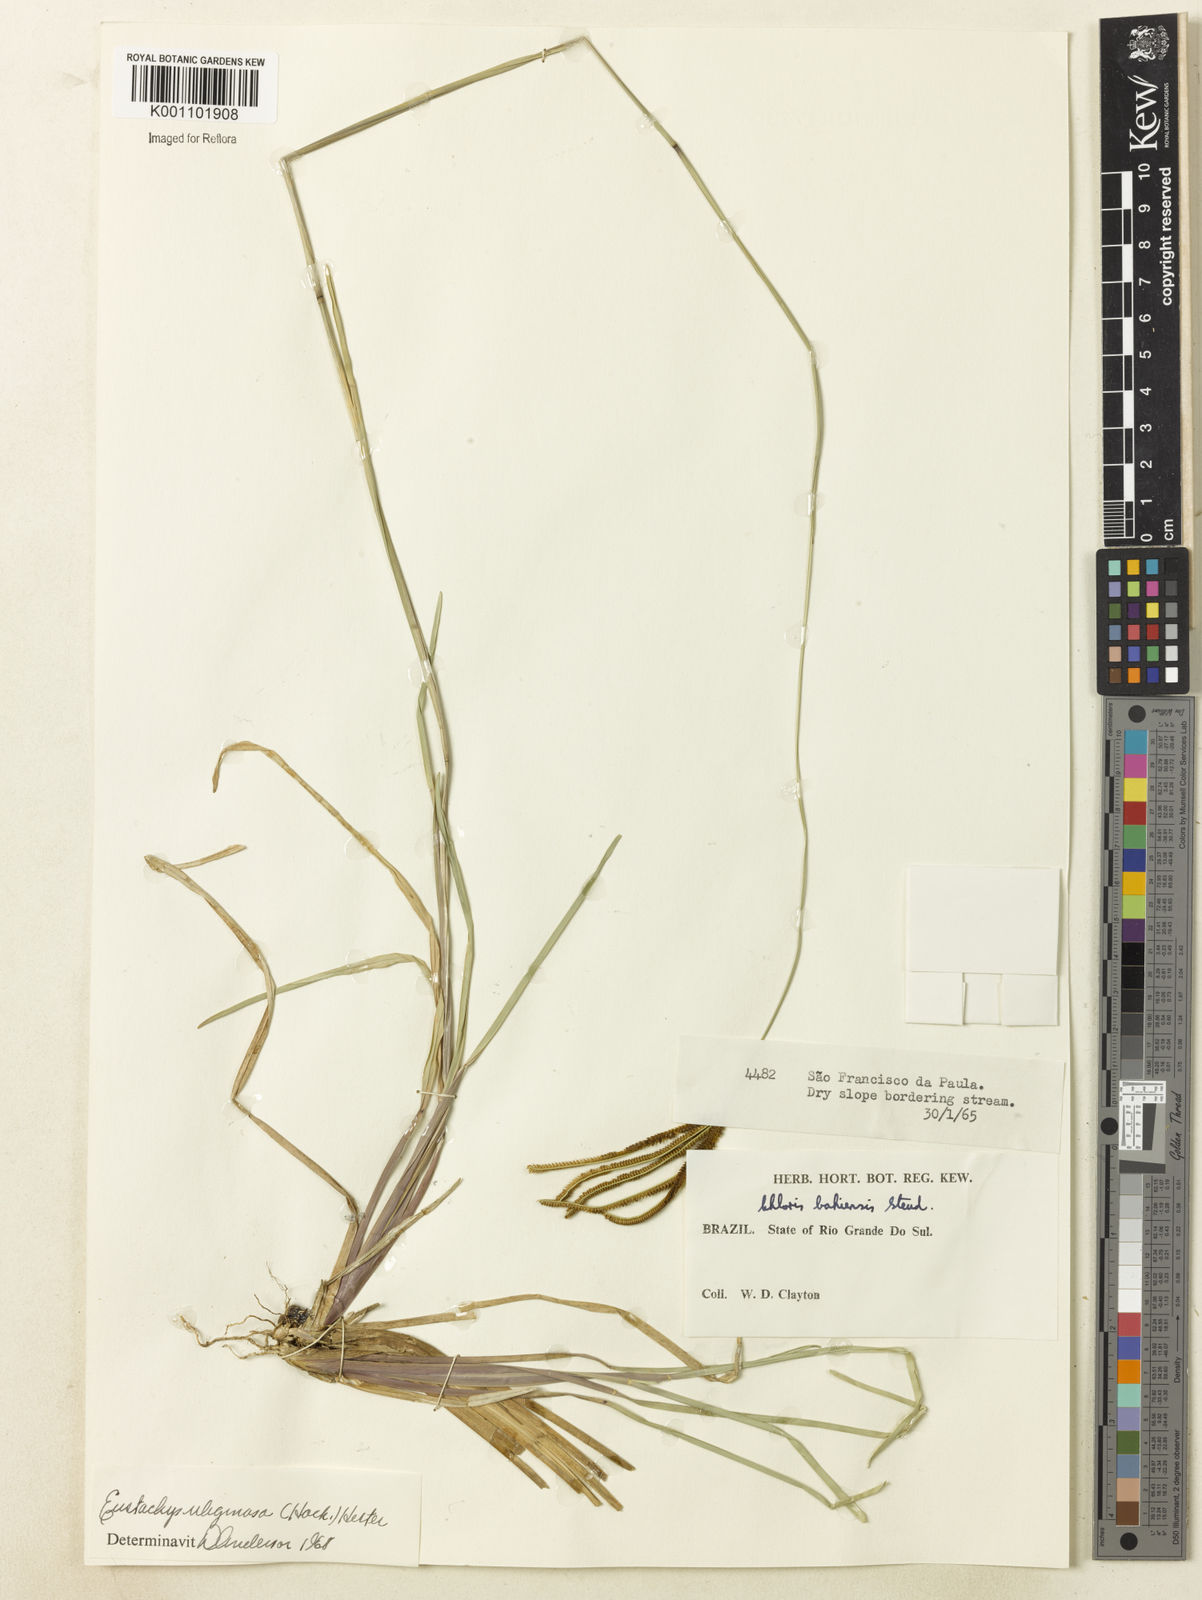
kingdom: Plantae
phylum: Tracheophyta
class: Liliopsida
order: Poales
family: Poaceae
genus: Eustachys
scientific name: Eustachys uliginosa
